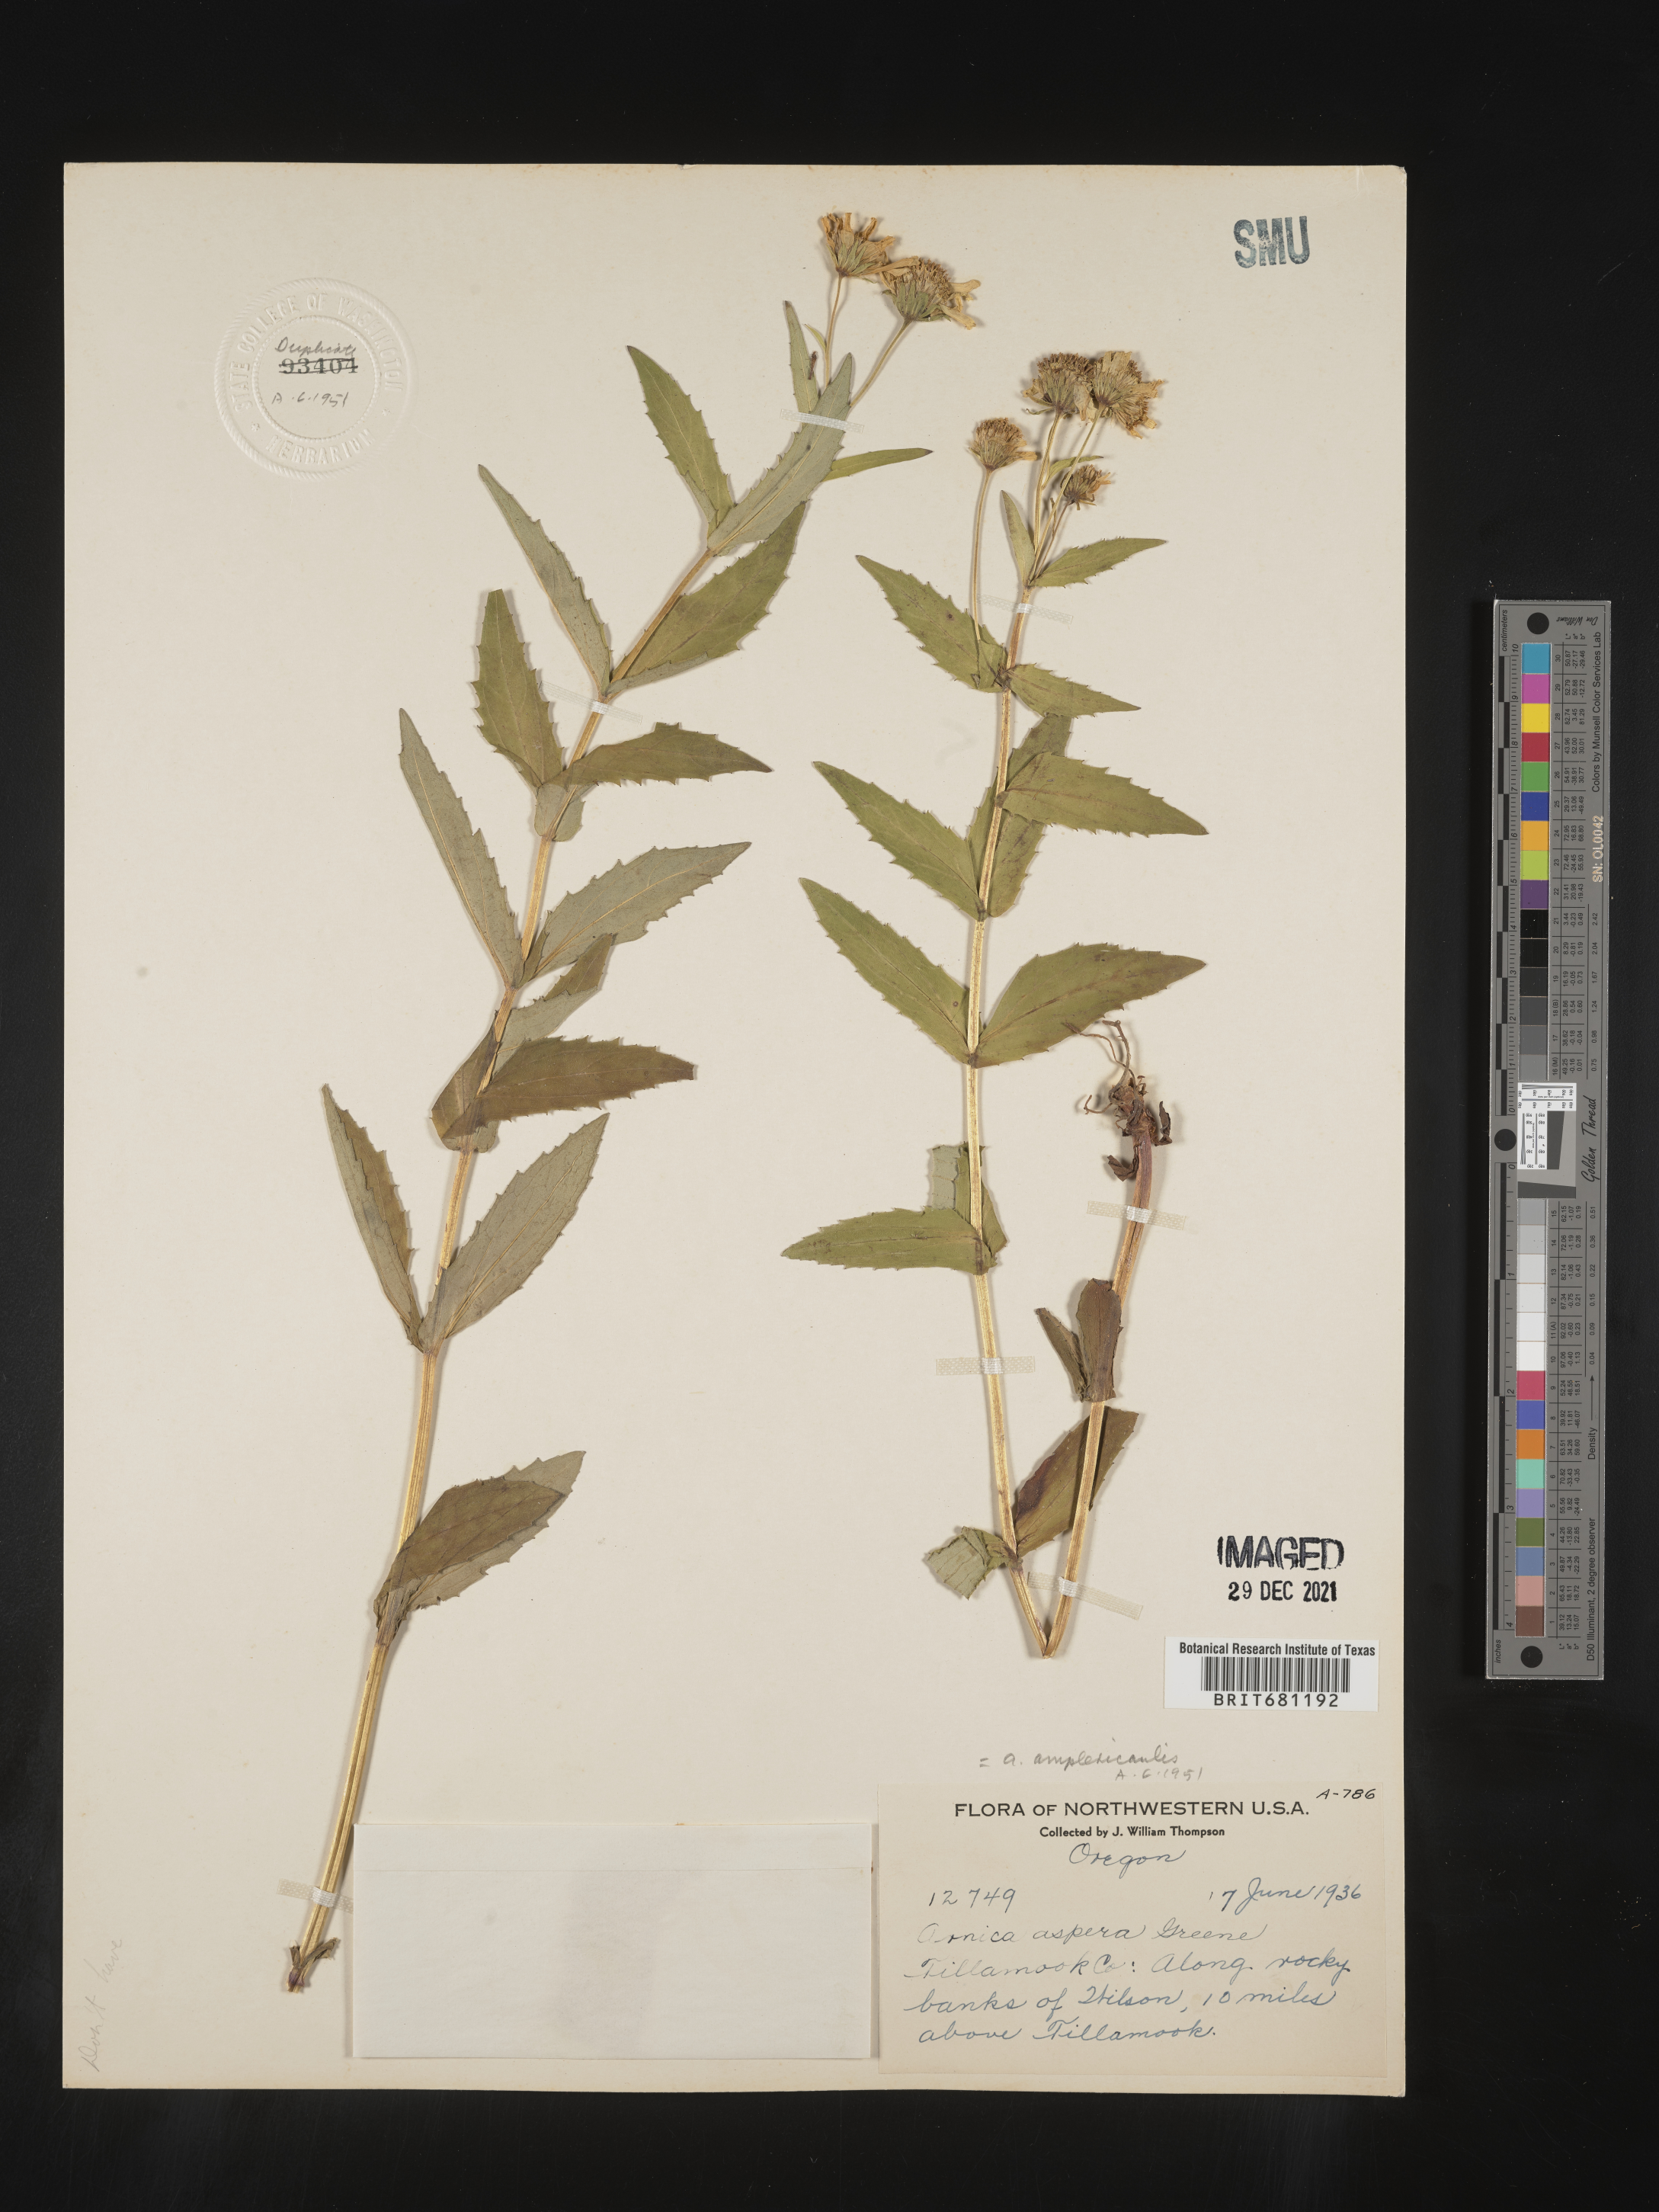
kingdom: Plantae
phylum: Tracheophyta
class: Magnoliopsida
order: Asterales
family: Asteraceae
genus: Arnica
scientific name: Arnica lanceolata
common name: Lance-leaved arnica
